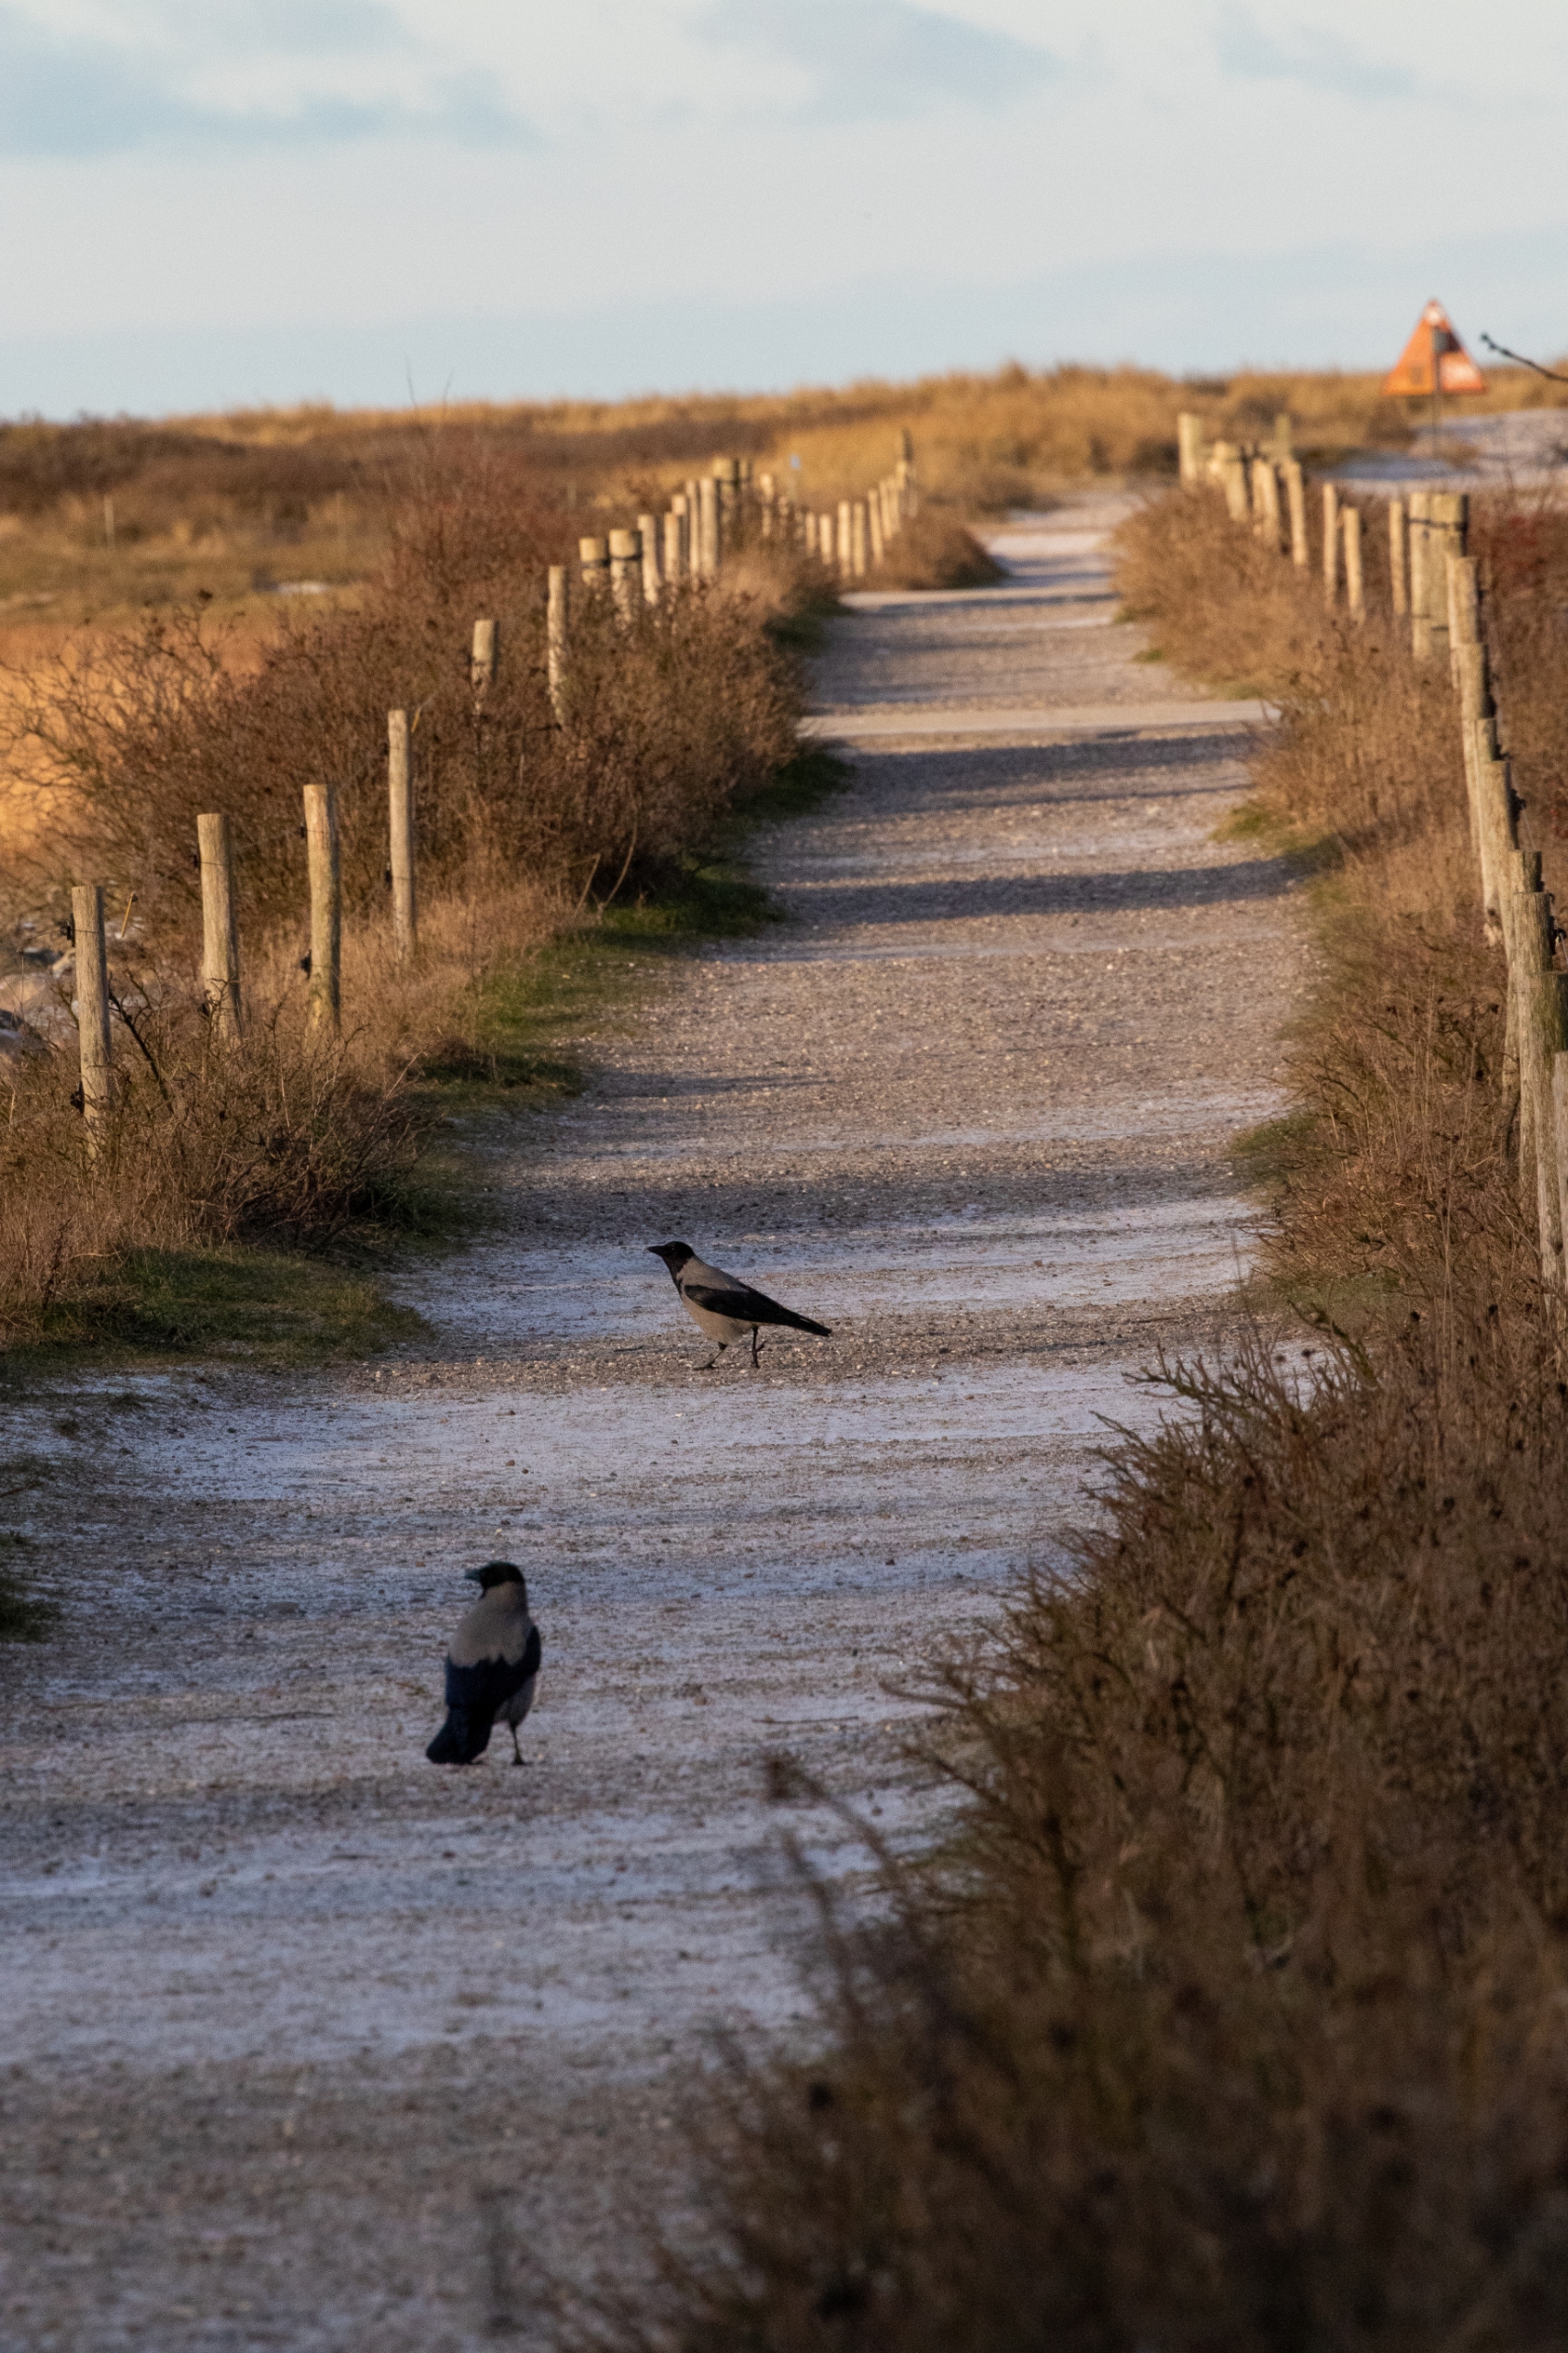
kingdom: Animalia
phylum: Chordata
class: Aves
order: Passeriformes
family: Corvidae
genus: Corvus
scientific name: Corvus cornix
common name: Gråkrage
